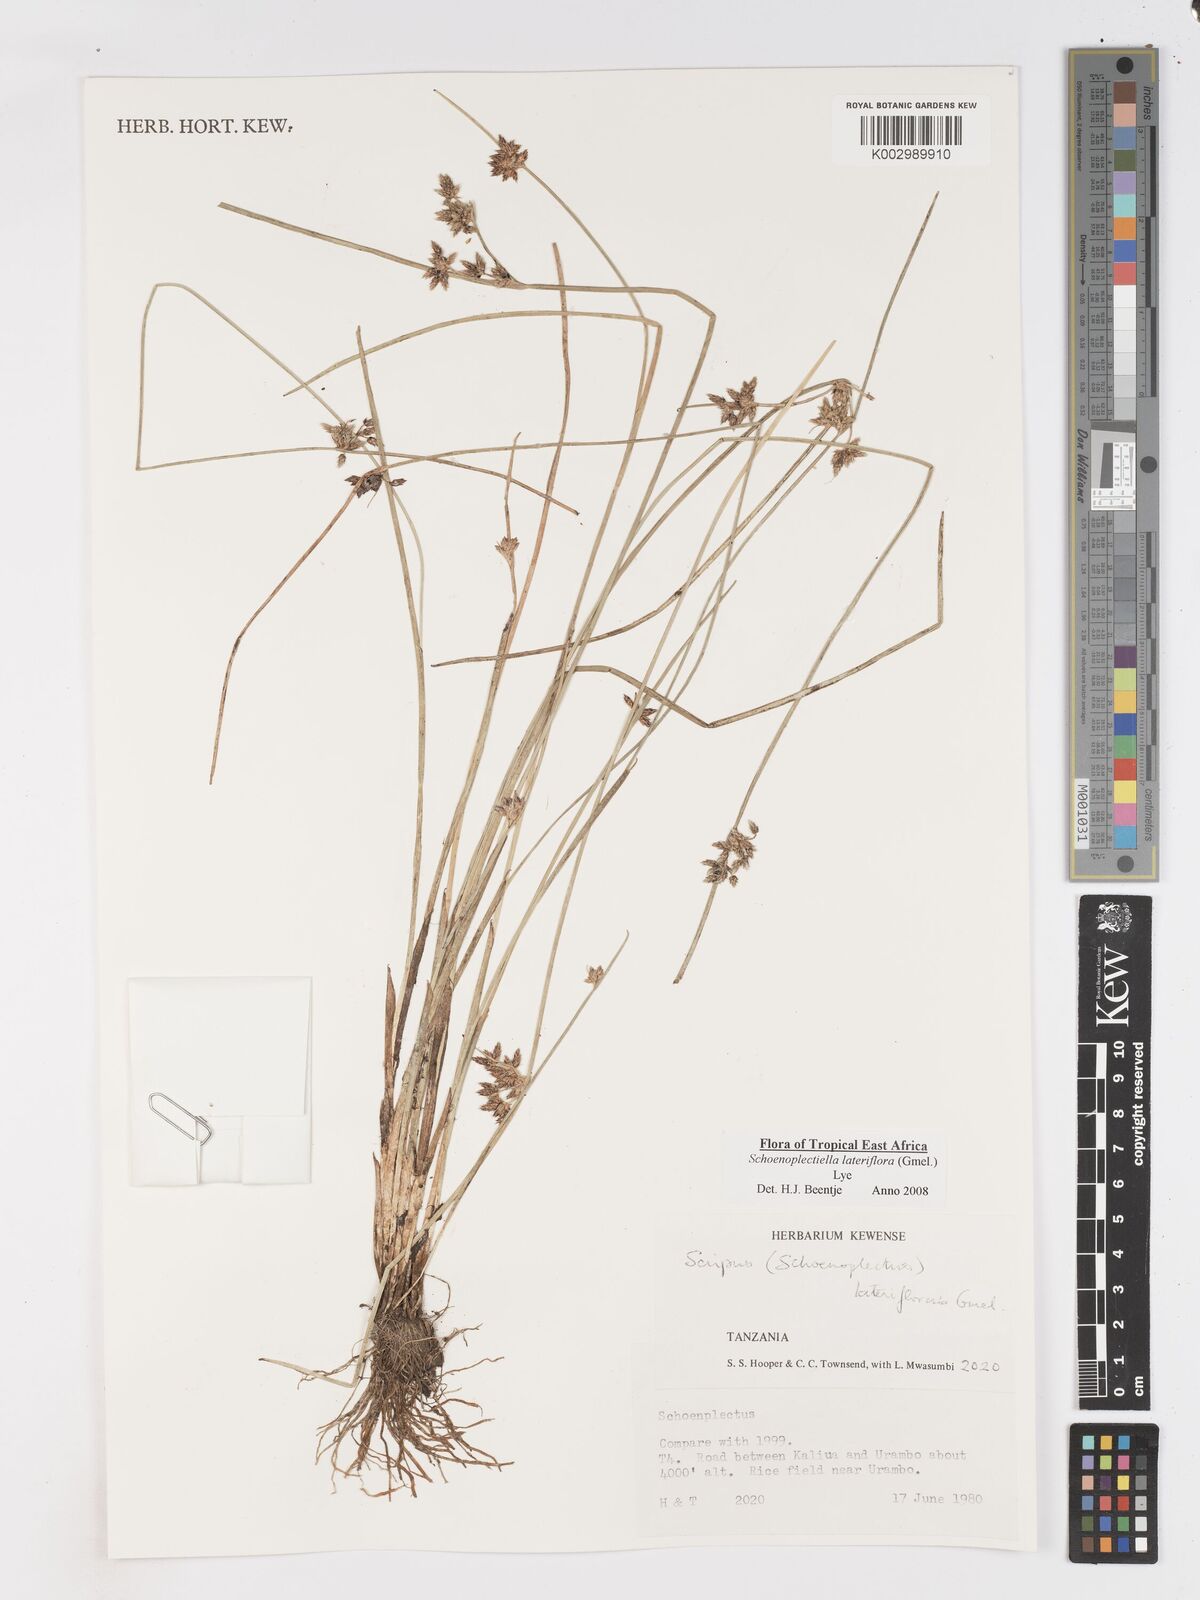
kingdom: Plantae
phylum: Tracheophyta
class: Liliopsida
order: Poales
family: Cyperaceae
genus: Schoenoplectiella
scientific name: Schoenoplectiella lateriflora
